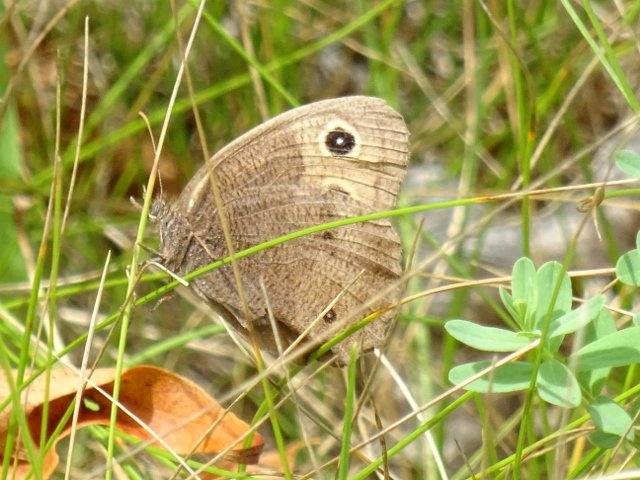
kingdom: Animalia
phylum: Arthropoda
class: Insecta
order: Lepidoptera
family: Nymphalidae
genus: Cercyonis
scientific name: Cercyonis pegala
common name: Common Wood-Nymph
